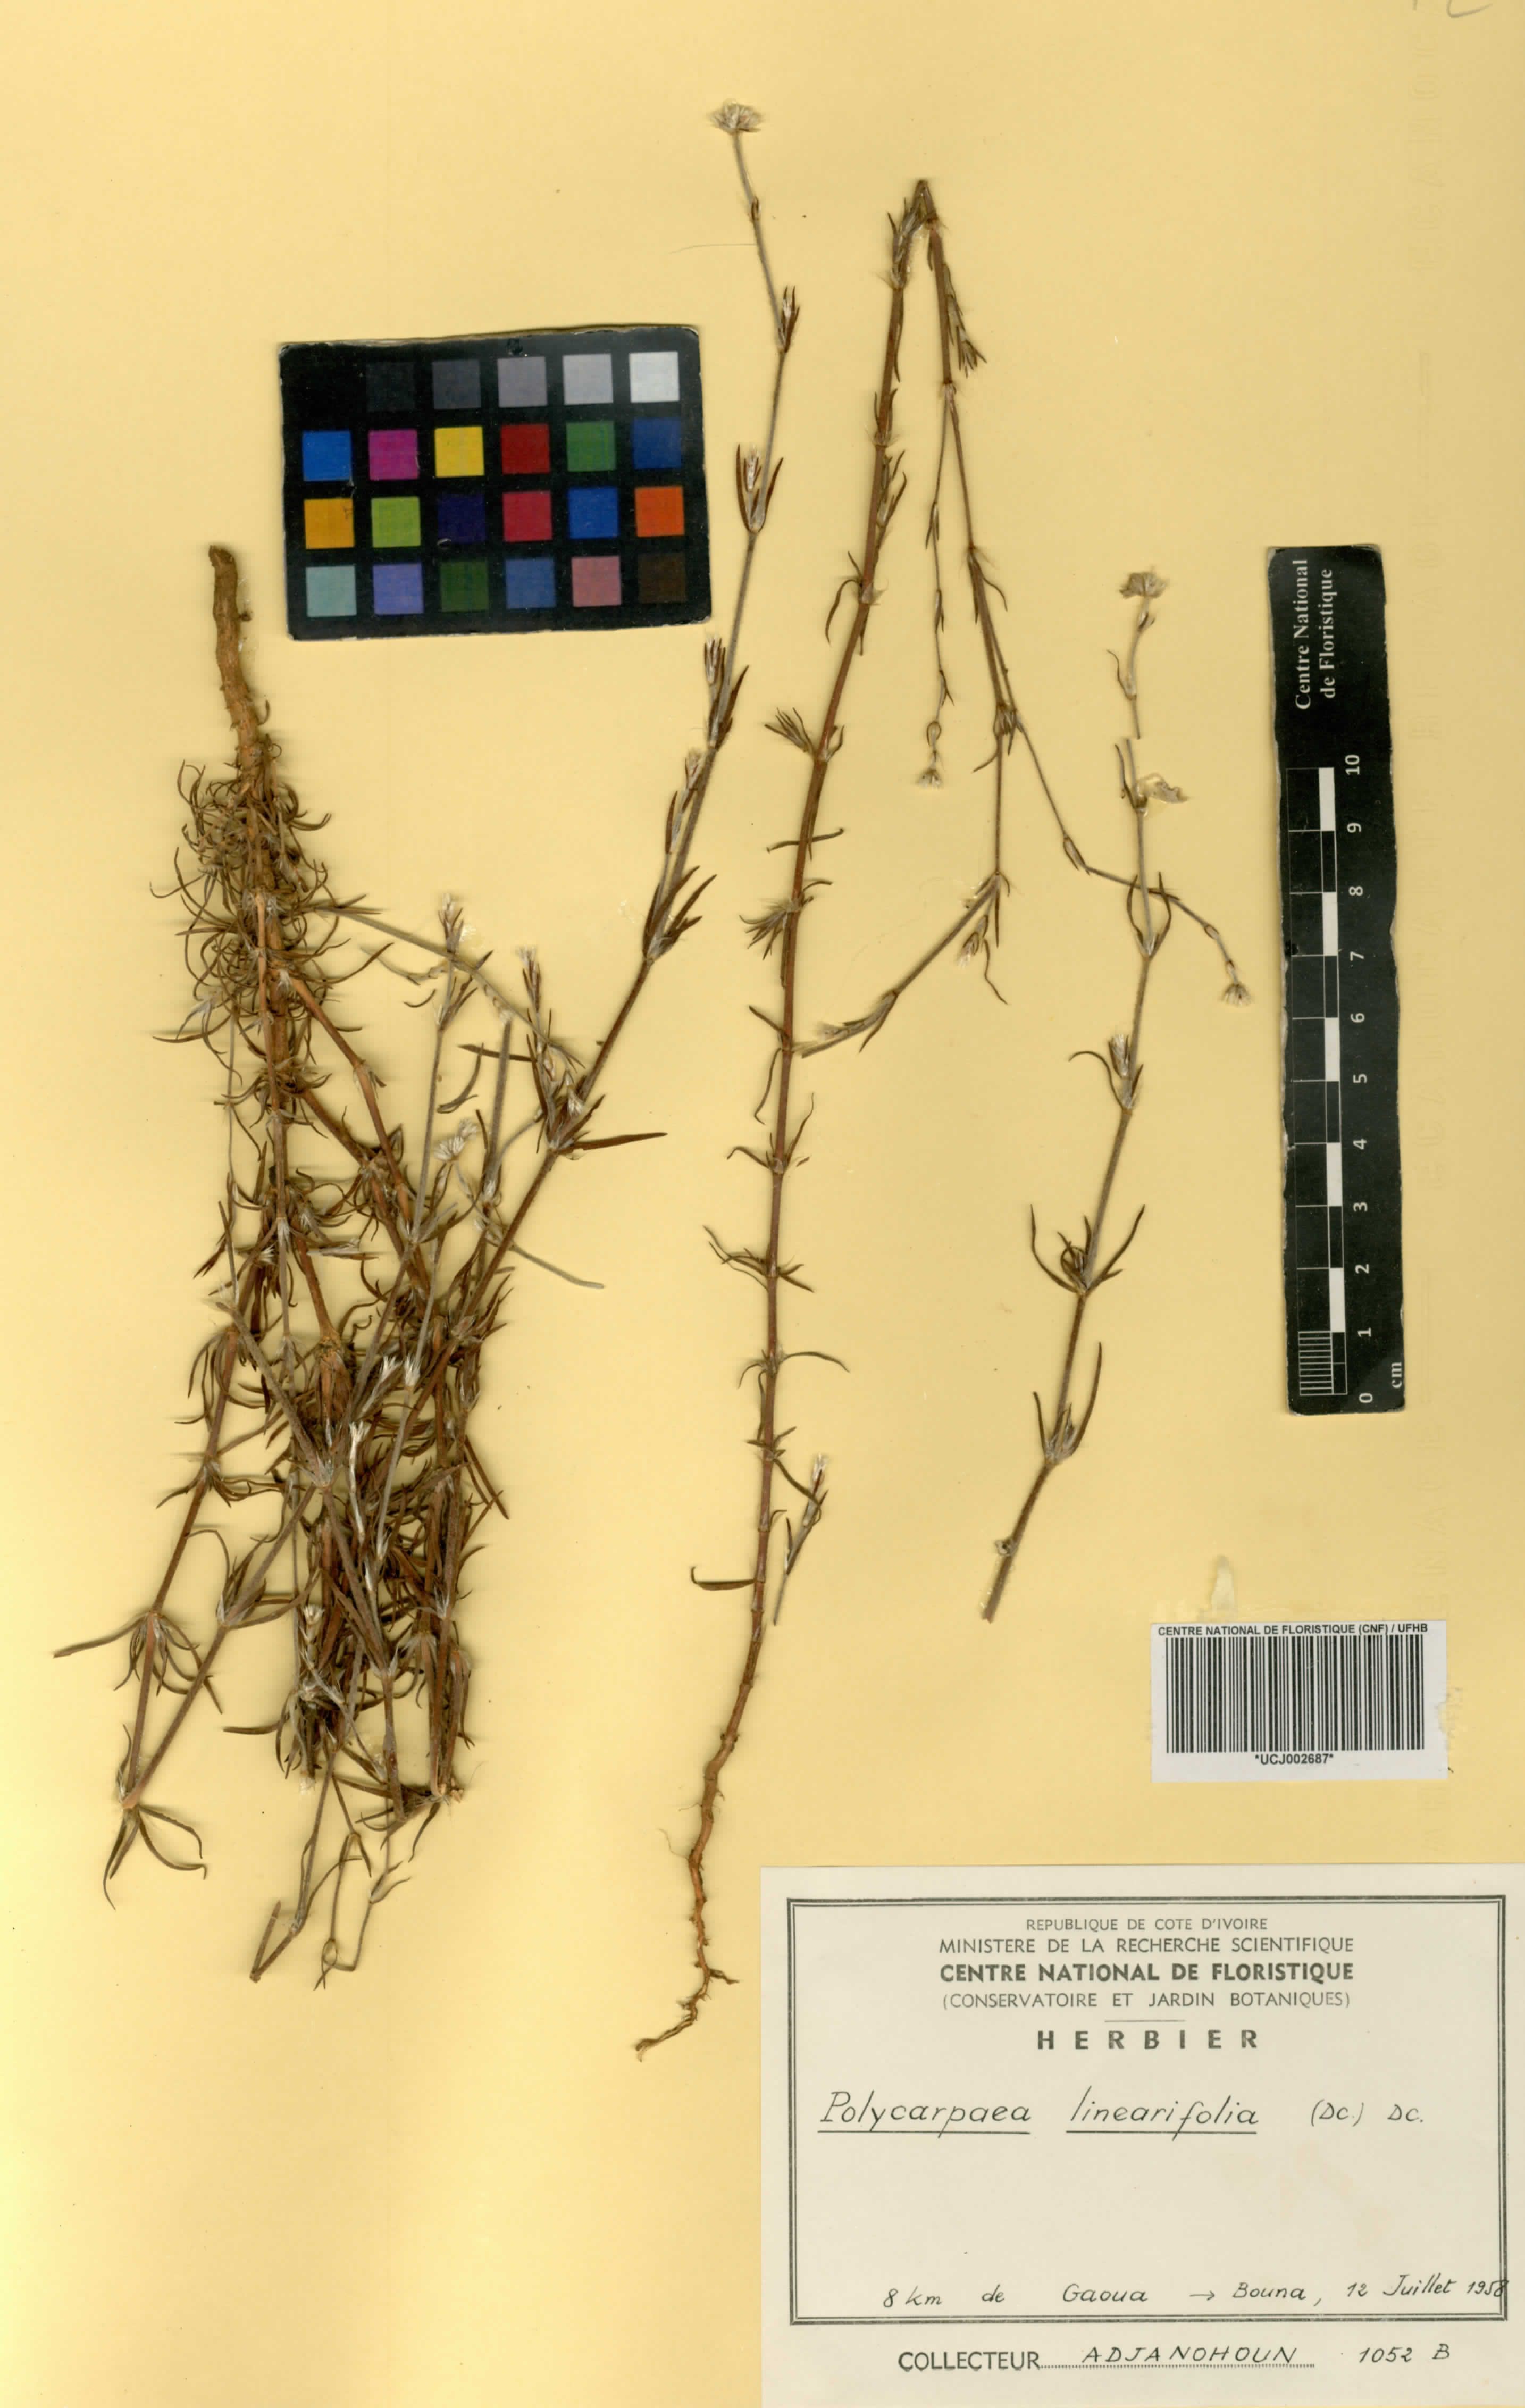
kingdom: Plantae
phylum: Tracheophyta
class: Magnoliopsida
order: Caryophyllales
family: Caryophyllaceae
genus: Polycarpaea
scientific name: Polycarpaea linearifolia
